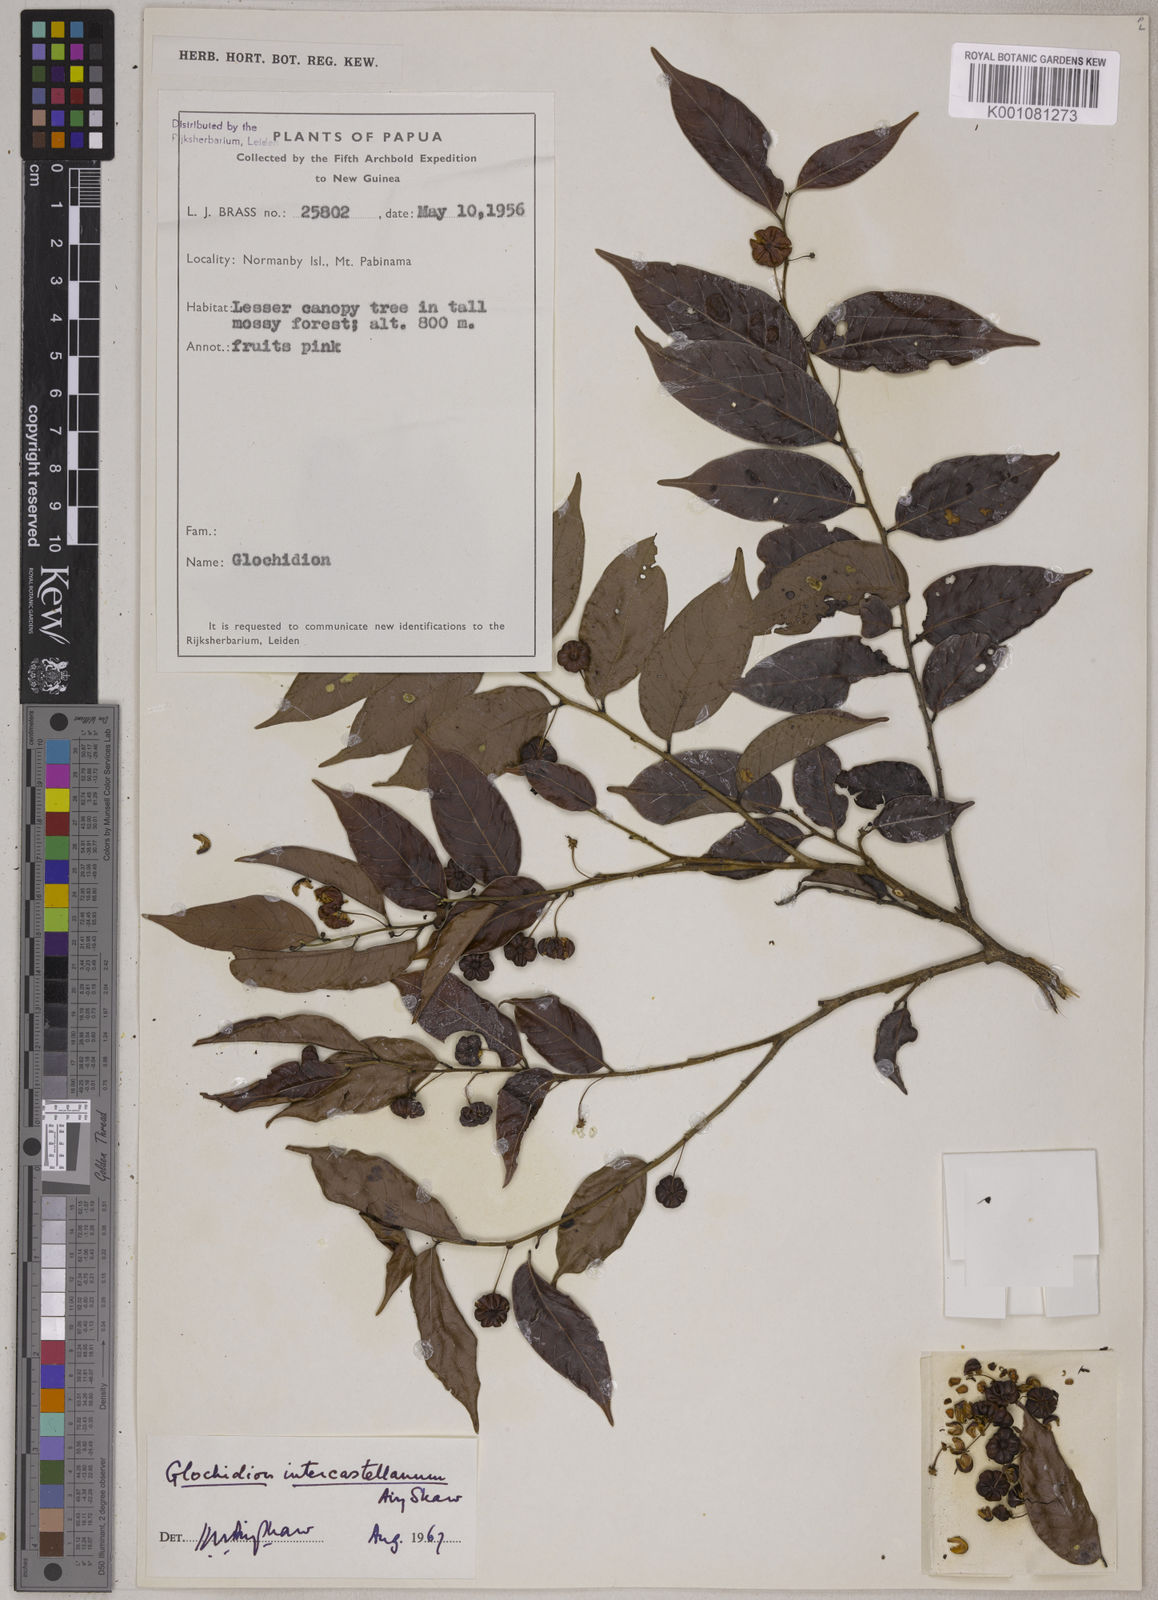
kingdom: Plantae
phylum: Tracheophyta
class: Magnoliopsida
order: Malpighiales
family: Phyllanthaceae
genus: Glochidion
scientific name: Glochidion intercastellanum
